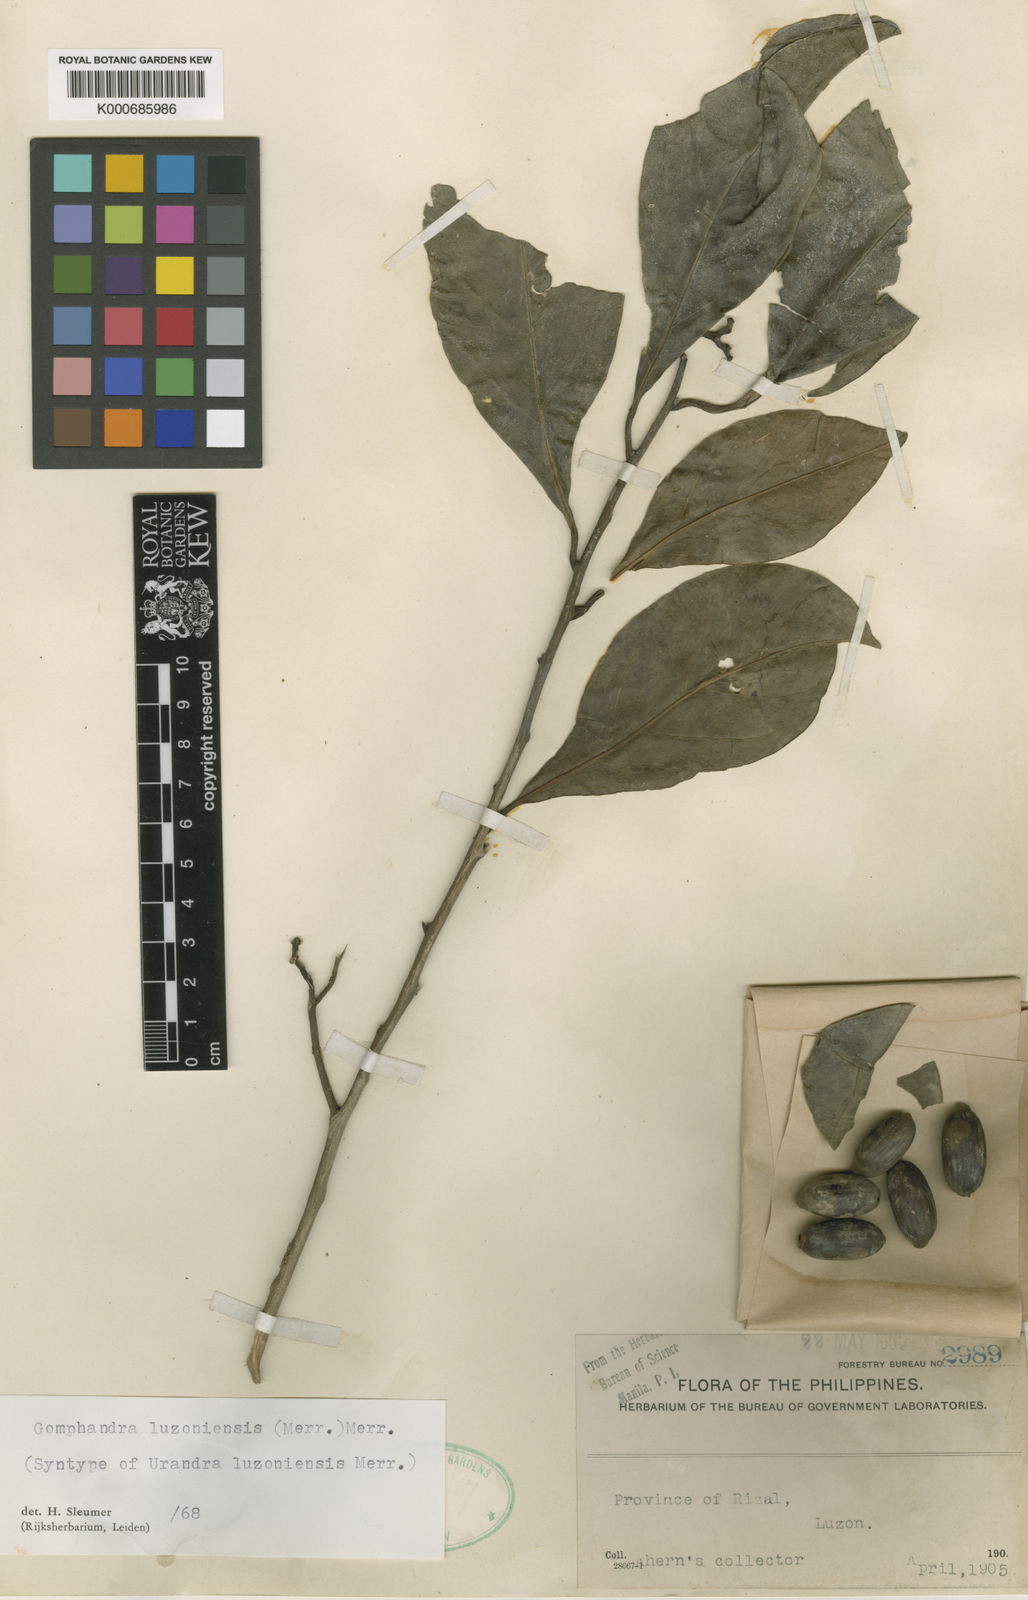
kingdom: Plantae
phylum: Tracheophyta
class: Magnoliopsida
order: Cardiopteridales
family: Stemonuraceae
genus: Gomphandra
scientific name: Gomphandra luzoniensis
